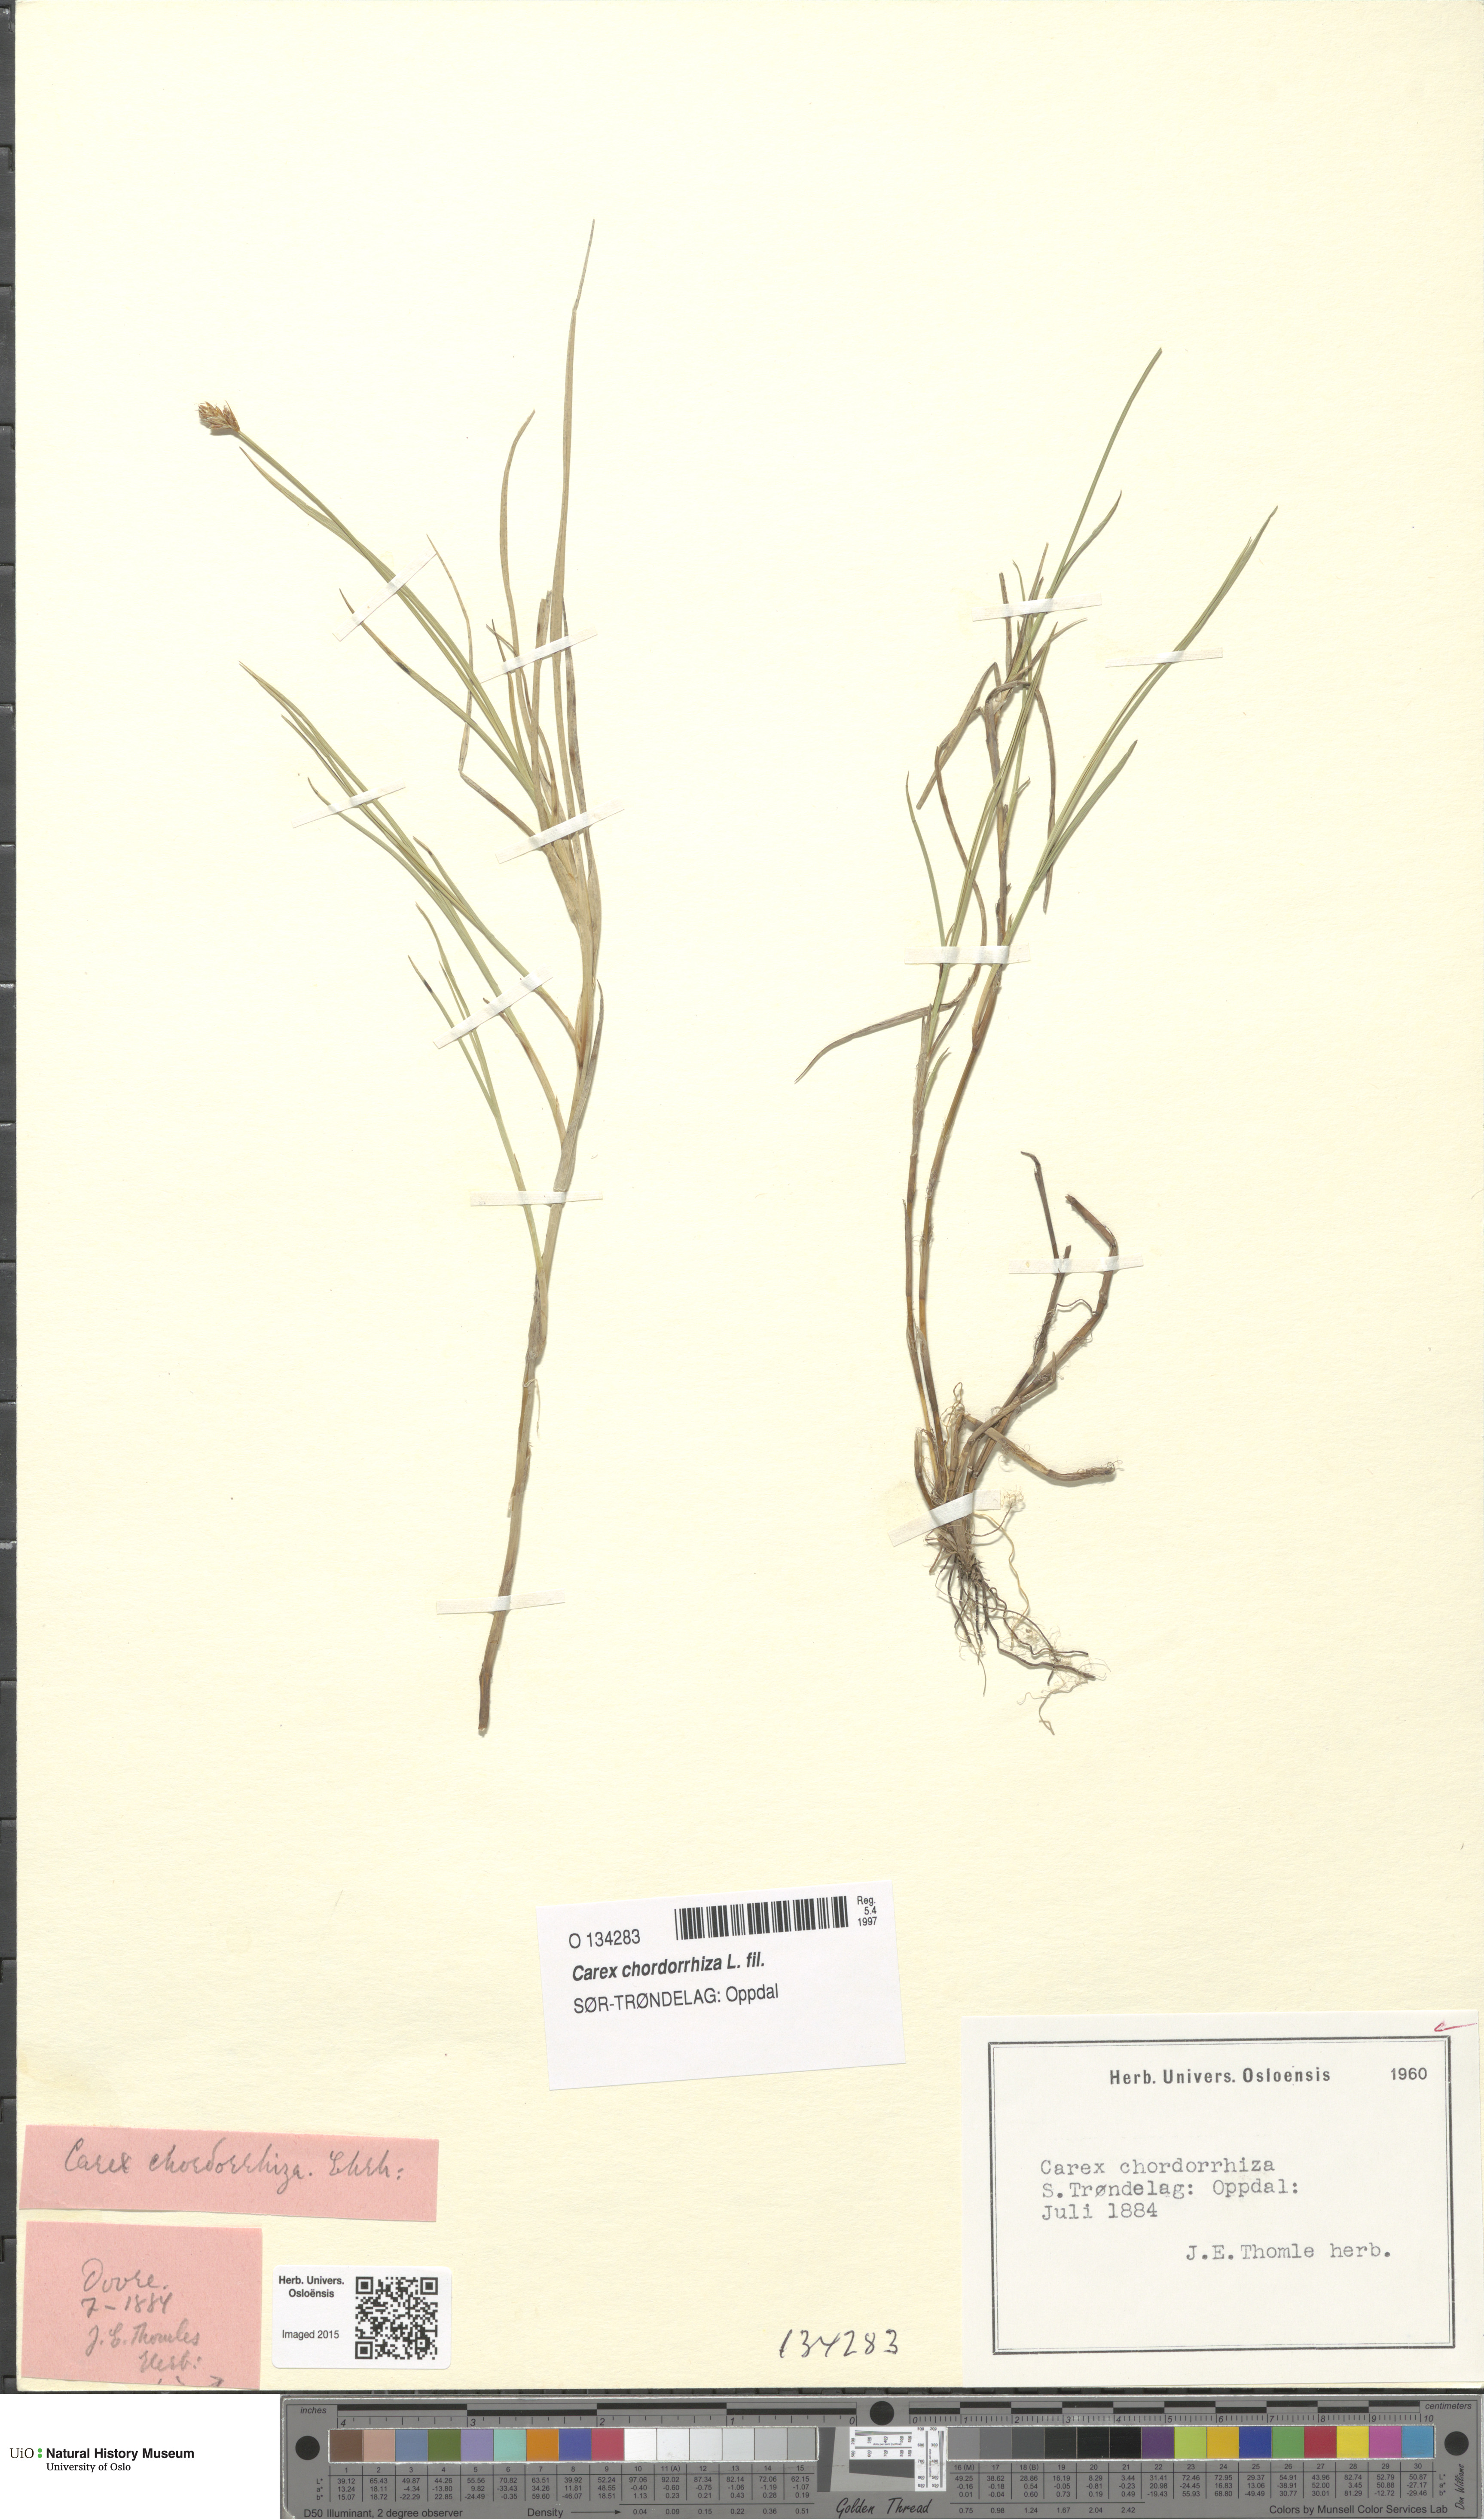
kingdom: Plantae
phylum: Tracheophyta
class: Liliopsida
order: Poales
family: Cyperaceae
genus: Carex
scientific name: Carex chordorrhiza
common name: String sedge
